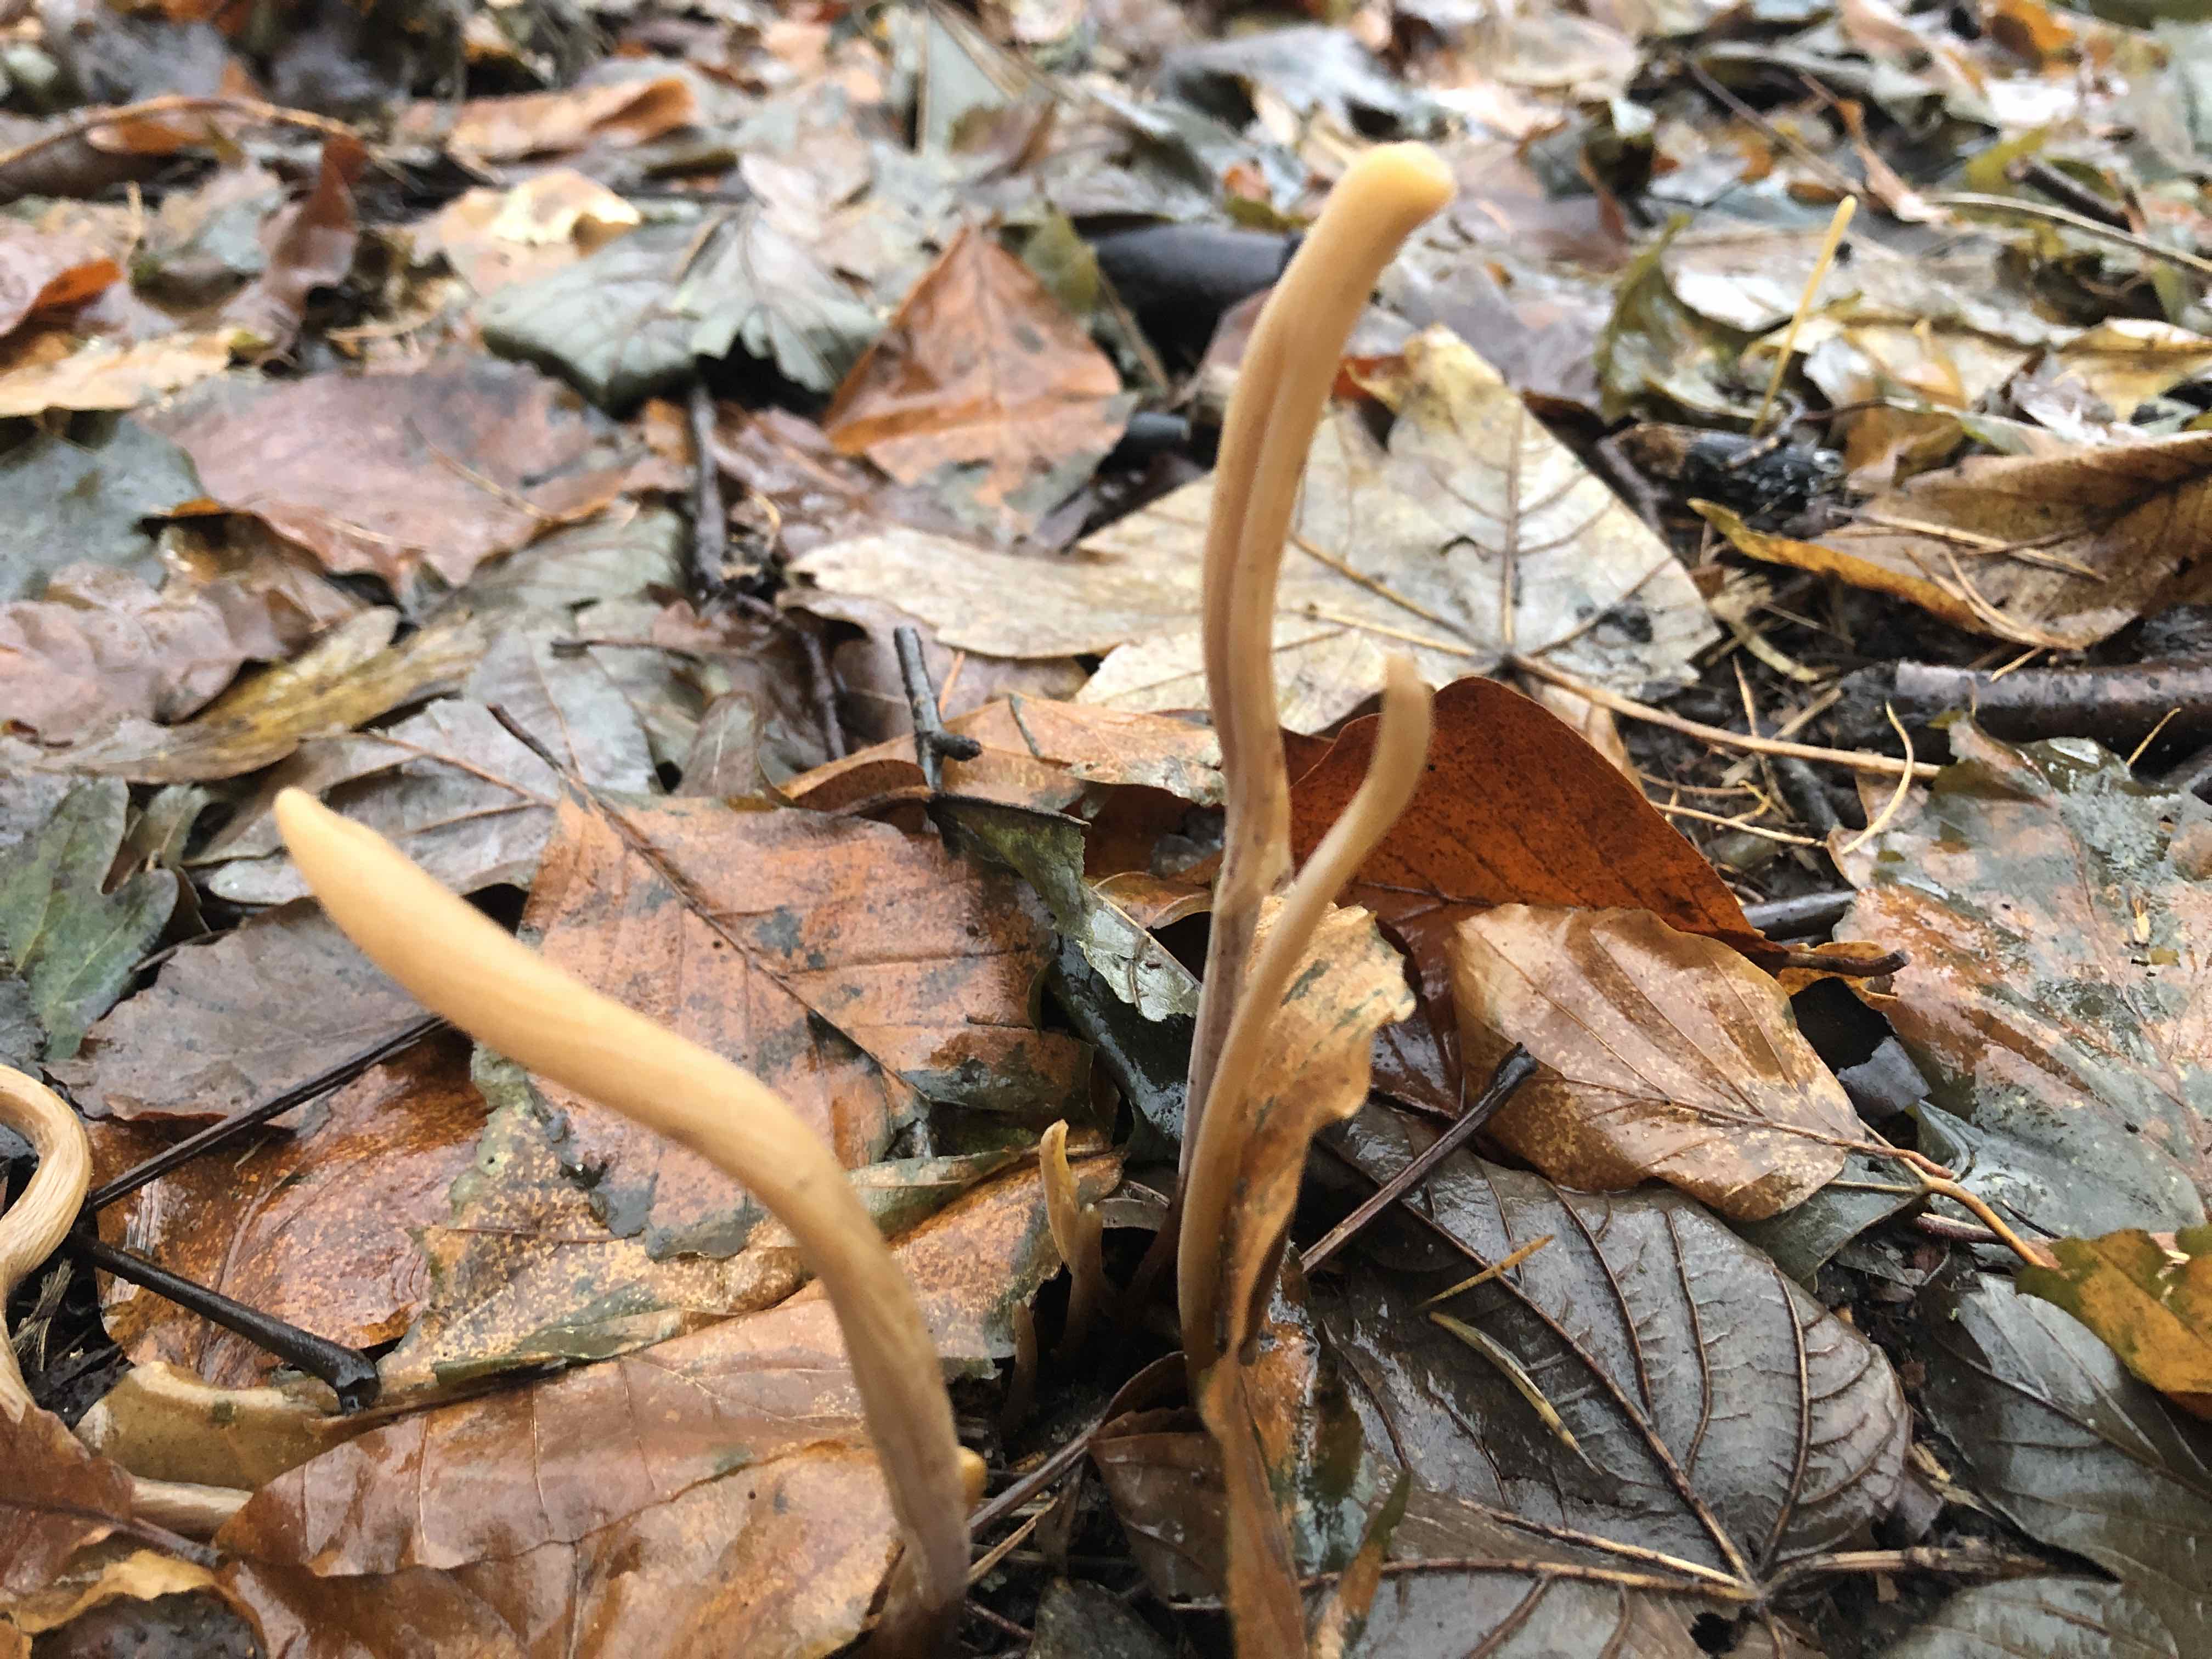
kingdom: Fungi
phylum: Basidiomycota
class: Agaricomycetes
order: Agaricales
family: Typhulaceae
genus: Typhula
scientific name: Typhula fistulosa
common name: pibet rørkølle
